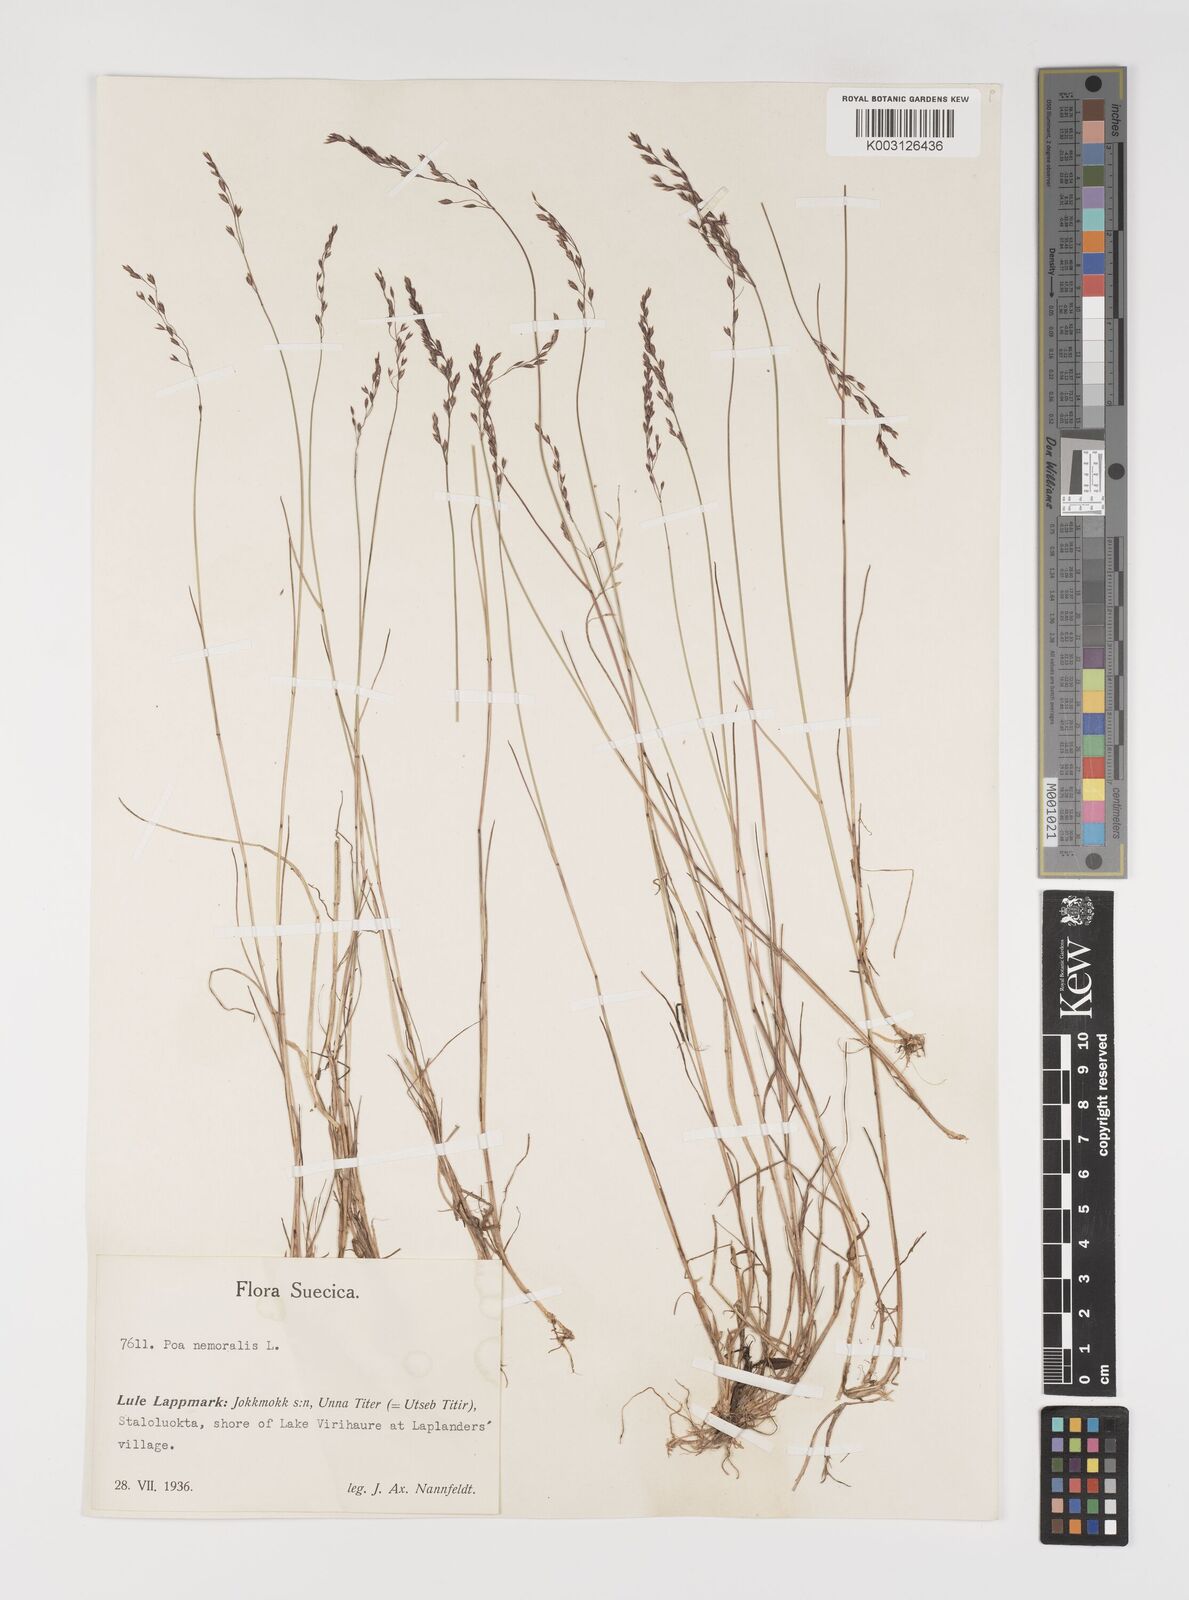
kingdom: Plantae
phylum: Tracheophyta
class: Liliopsida
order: Poales
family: Poaceae
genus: Poa
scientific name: Poa nemoralis
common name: Wood bluegrass
